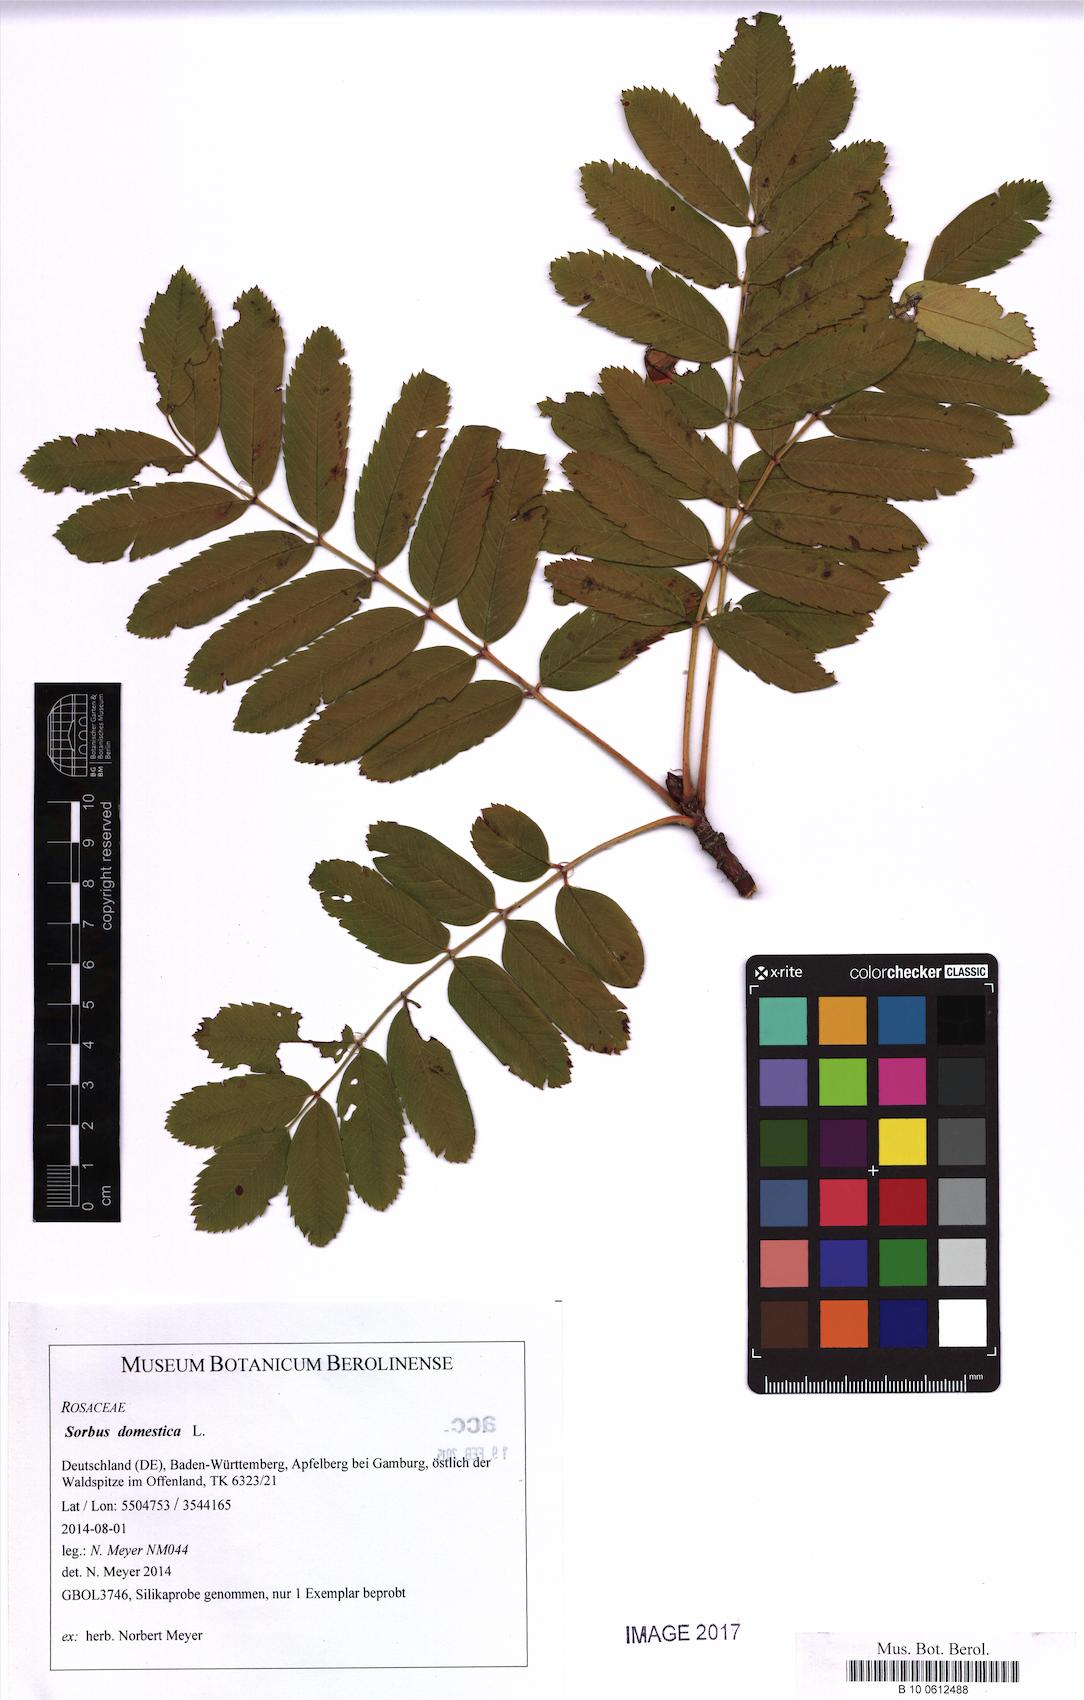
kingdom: Plantae
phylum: Tracheophyta
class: Magnoliopsida
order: Rosales
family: Rosaceae
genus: Cormus
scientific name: Cormus domestica
